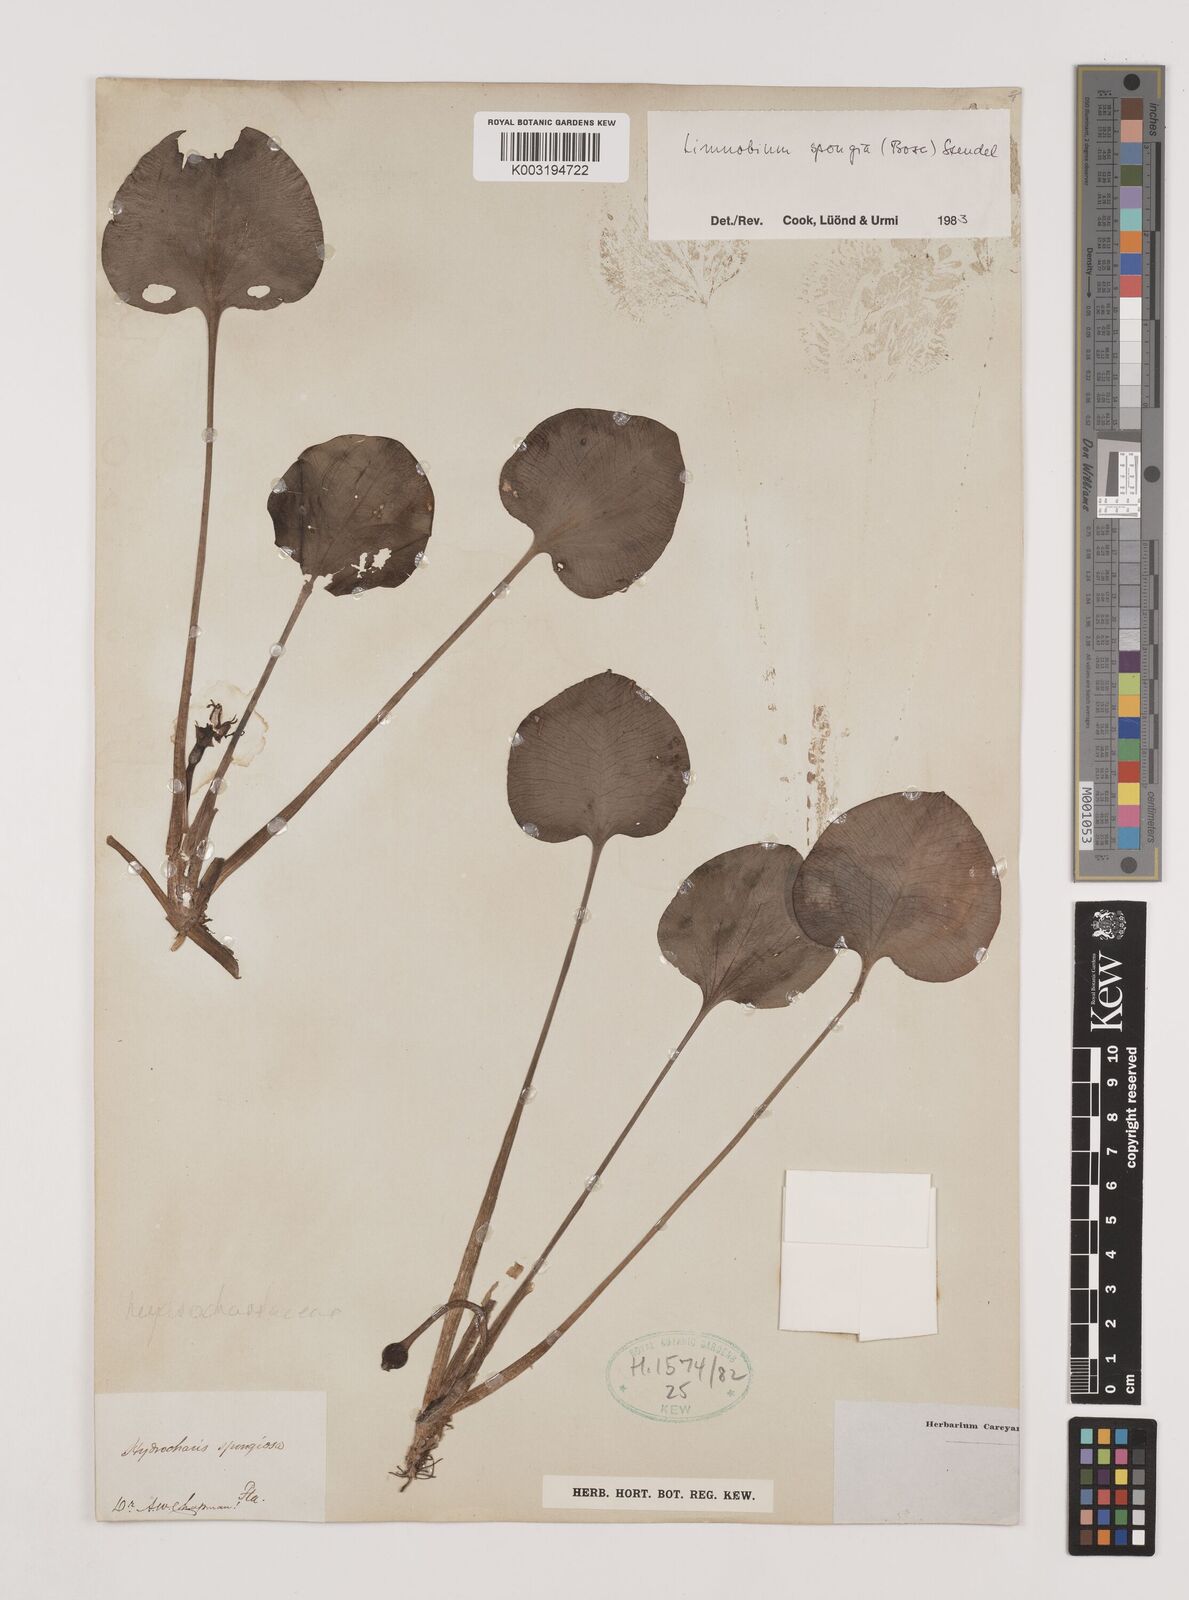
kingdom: Plantae
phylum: Tracheophyta
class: Liliopsida
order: Alismatales
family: Hydrocharitaceae
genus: Hydrocharis
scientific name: Hydrocharis spongia
